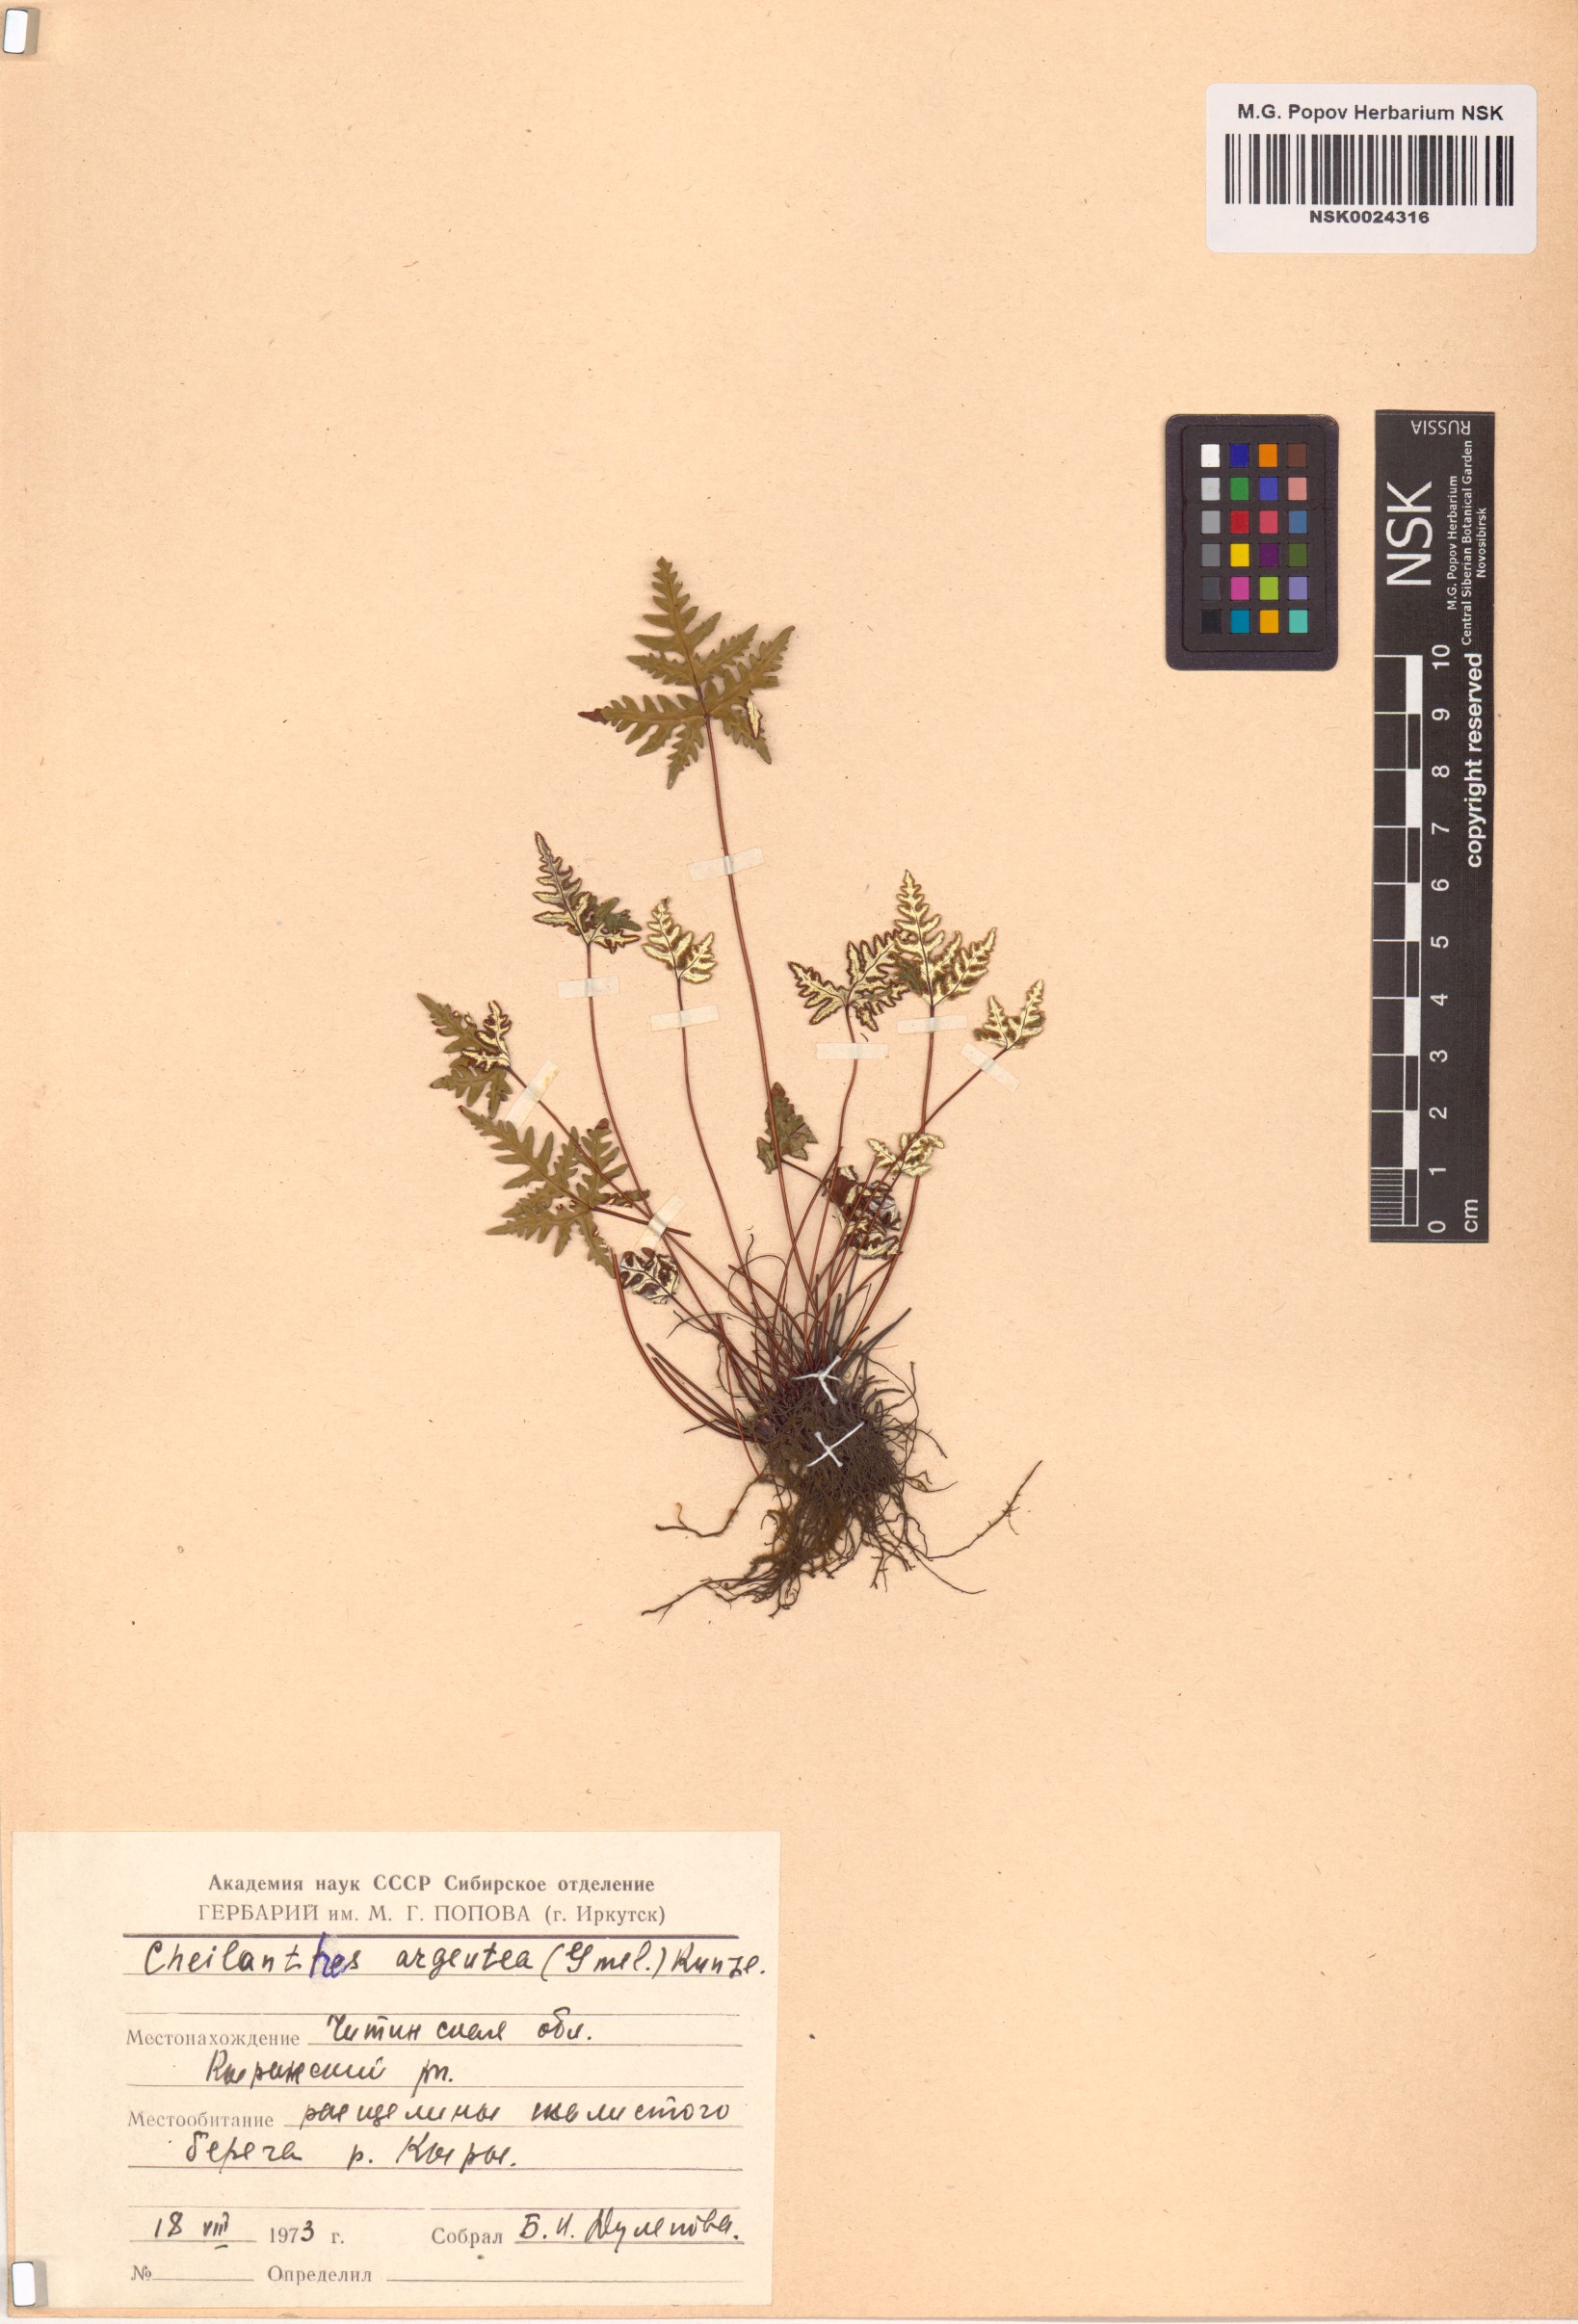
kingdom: Plantae
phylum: Tracheophyta
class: Polypodiopsida
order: Polypodiales
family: Pteridaceae
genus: Aleuritopteris
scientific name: Aleuritopteris argentea
